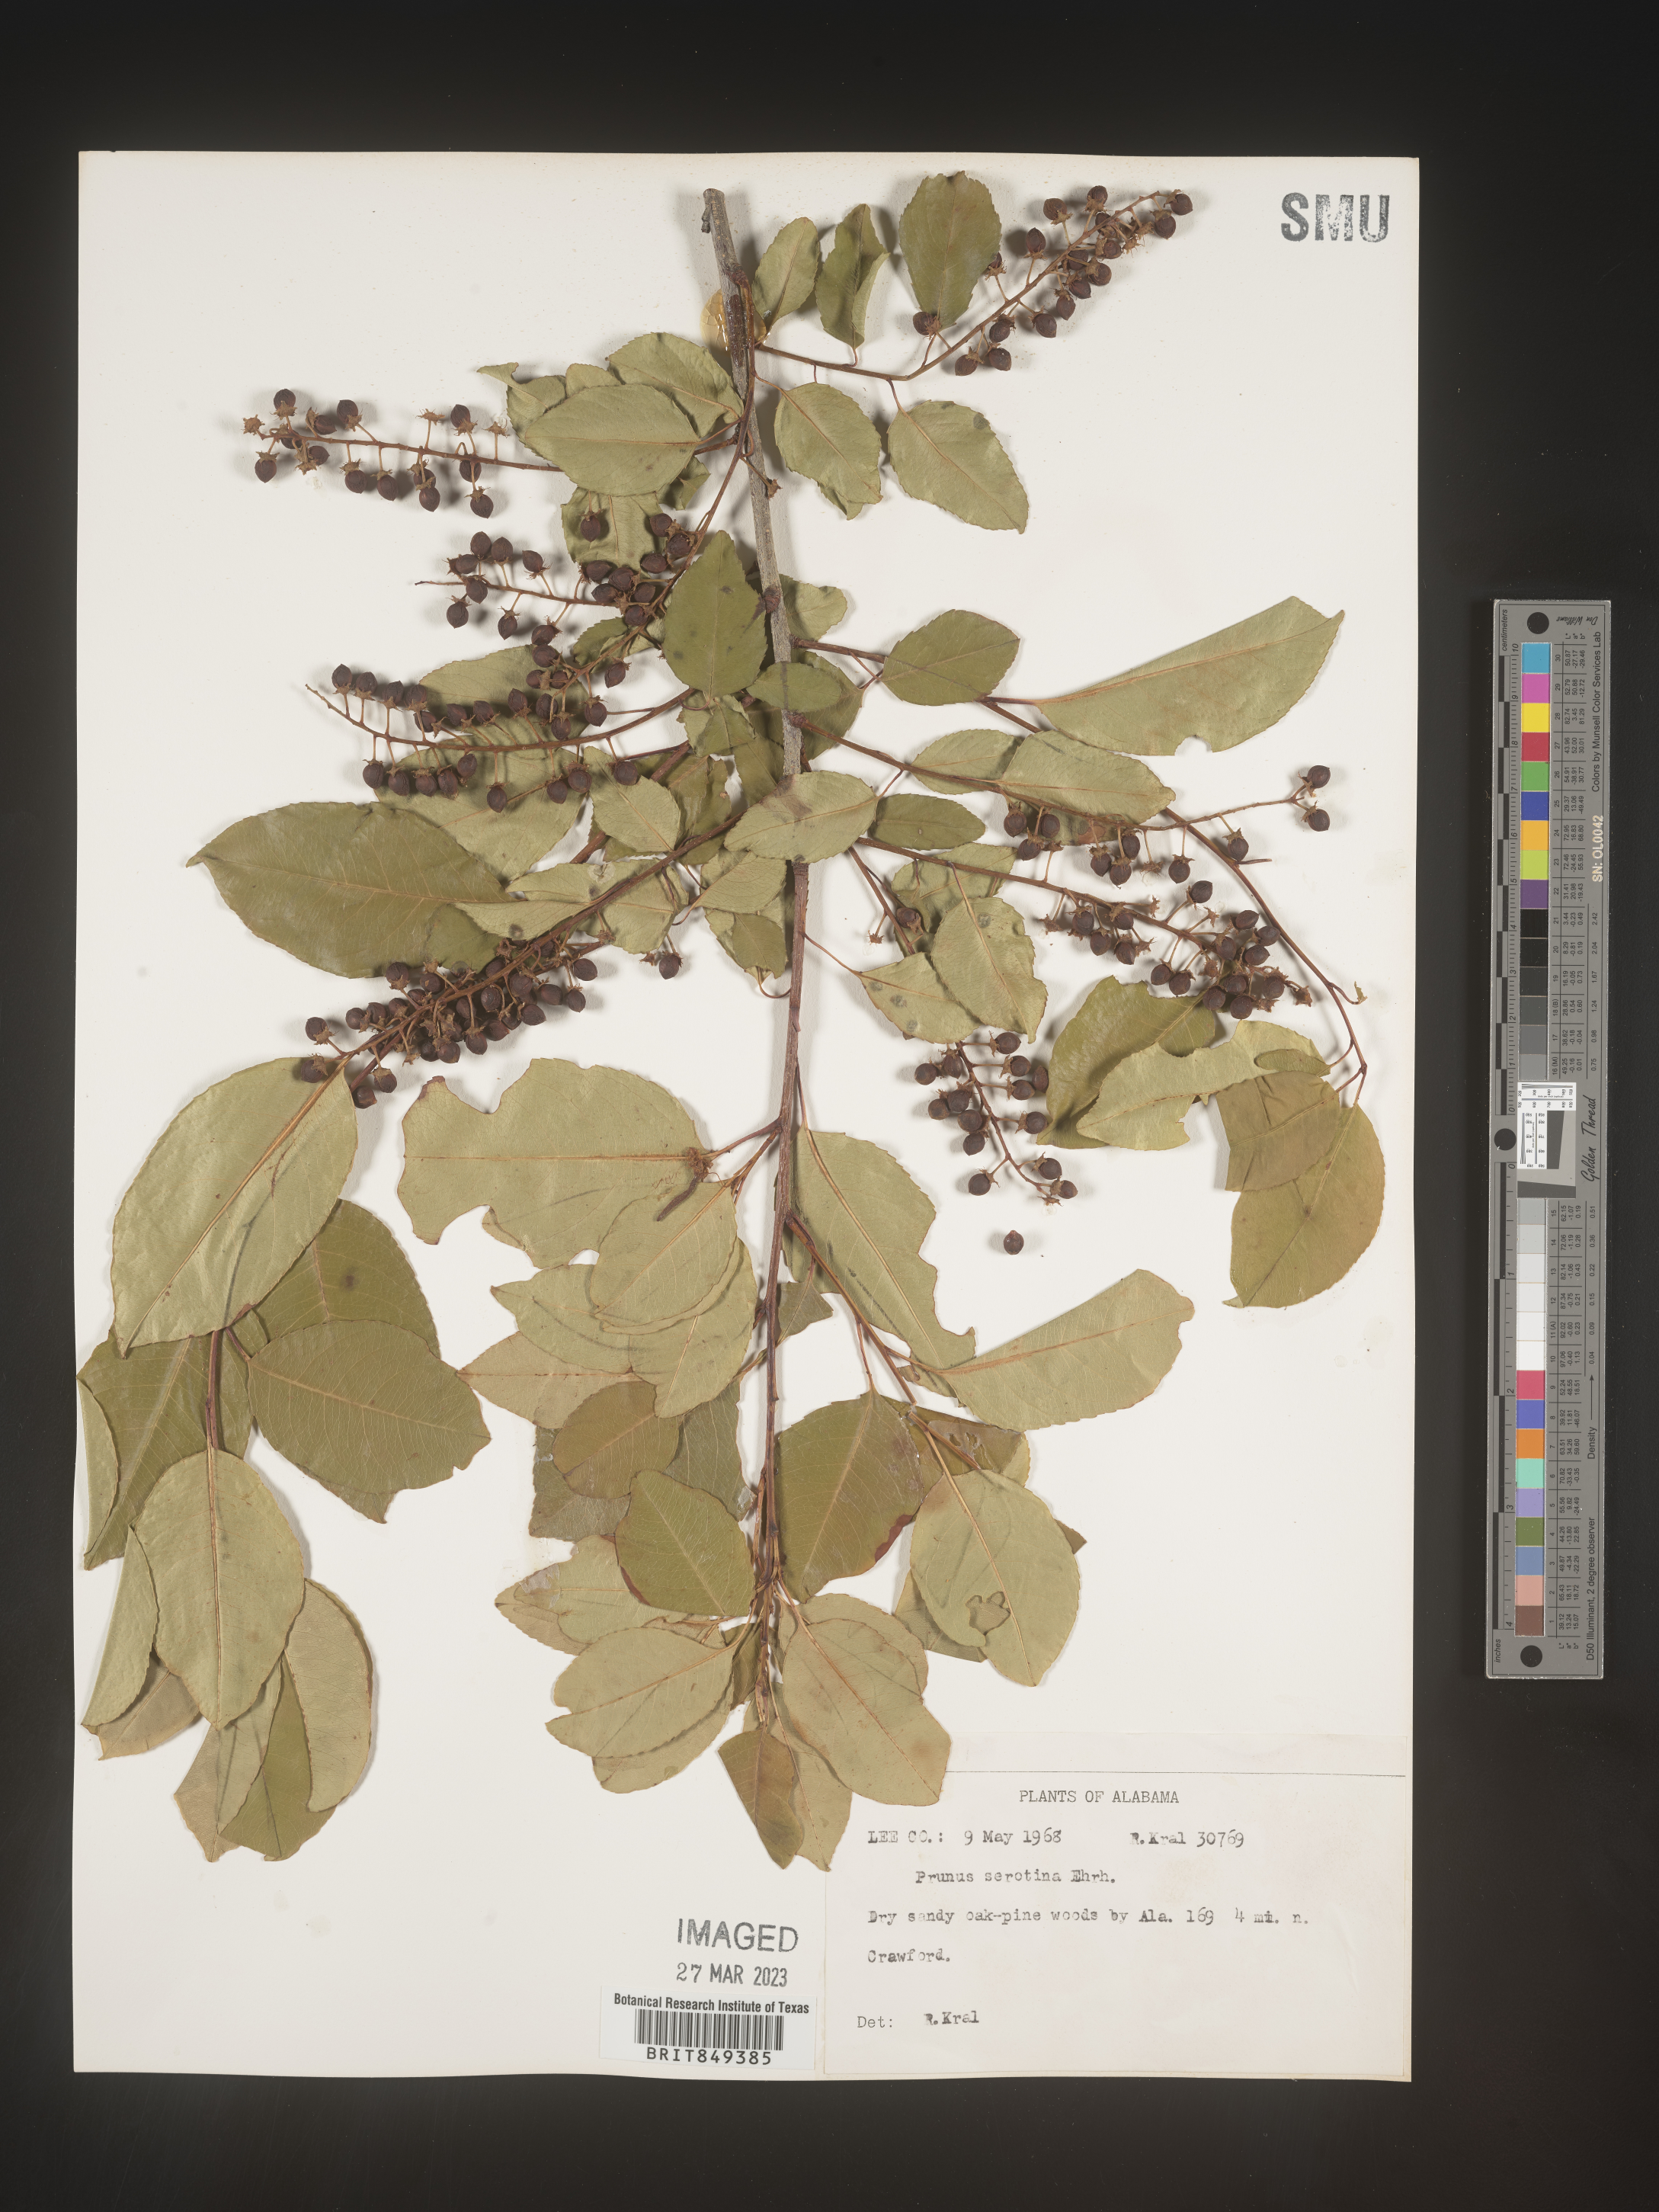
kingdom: Plantae
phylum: Tracheophyta
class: Magnoliopsida
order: Rosales
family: Rosaceae
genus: Prunus
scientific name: Prunus serotina
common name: Black cherry
